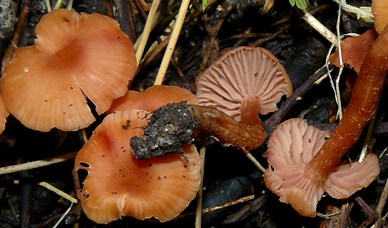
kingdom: Fungi
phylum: Basidiomycota
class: Agaricomycetes
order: Agaricales
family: Hydnangiaceae
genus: Laccaria
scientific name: Laccaria laccata
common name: rød ametysthat
